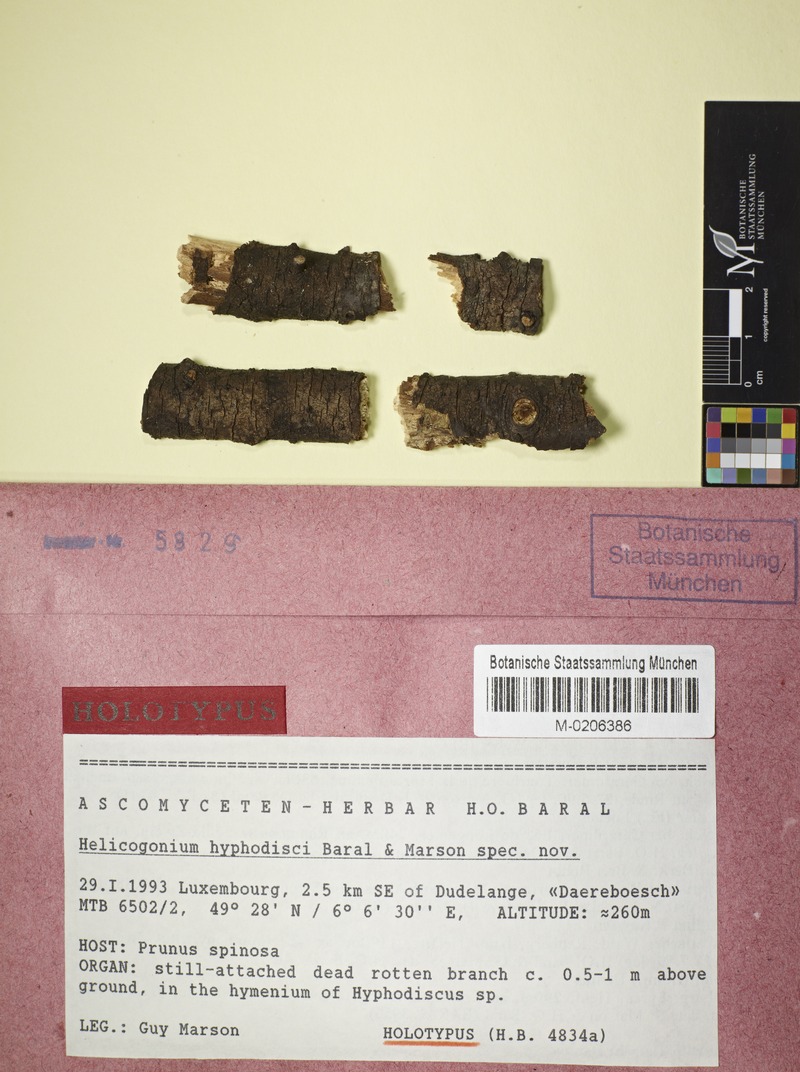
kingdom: Fungi
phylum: Ascomycota
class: Leotiomycetes
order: Phacidiales
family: Helicogoniaceae
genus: Helicogonium
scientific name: Helicogonium hyphodisci
